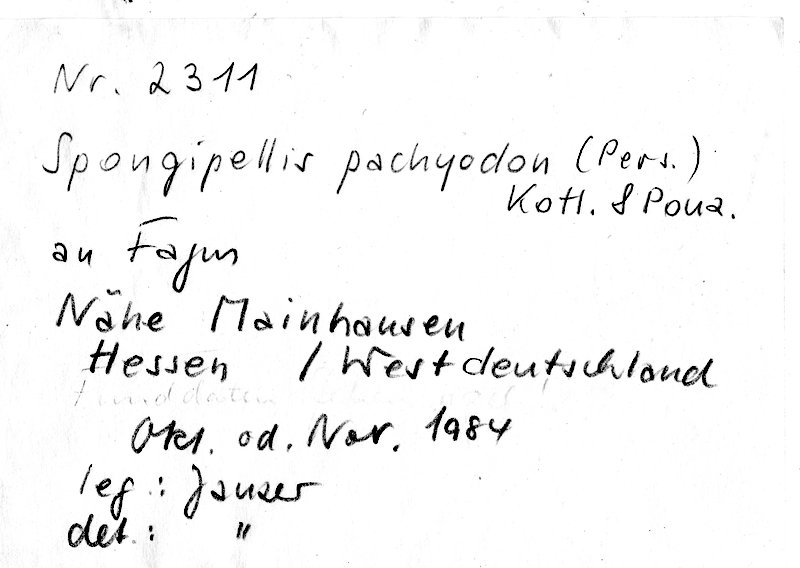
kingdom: Fungi
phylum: Basidiomycota
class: Agaricomycetes
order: Polyporales
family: Meruliaceae
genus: Irpiciporus
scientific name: Irpiciporus pachyodon
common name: Marshmallow polypore
